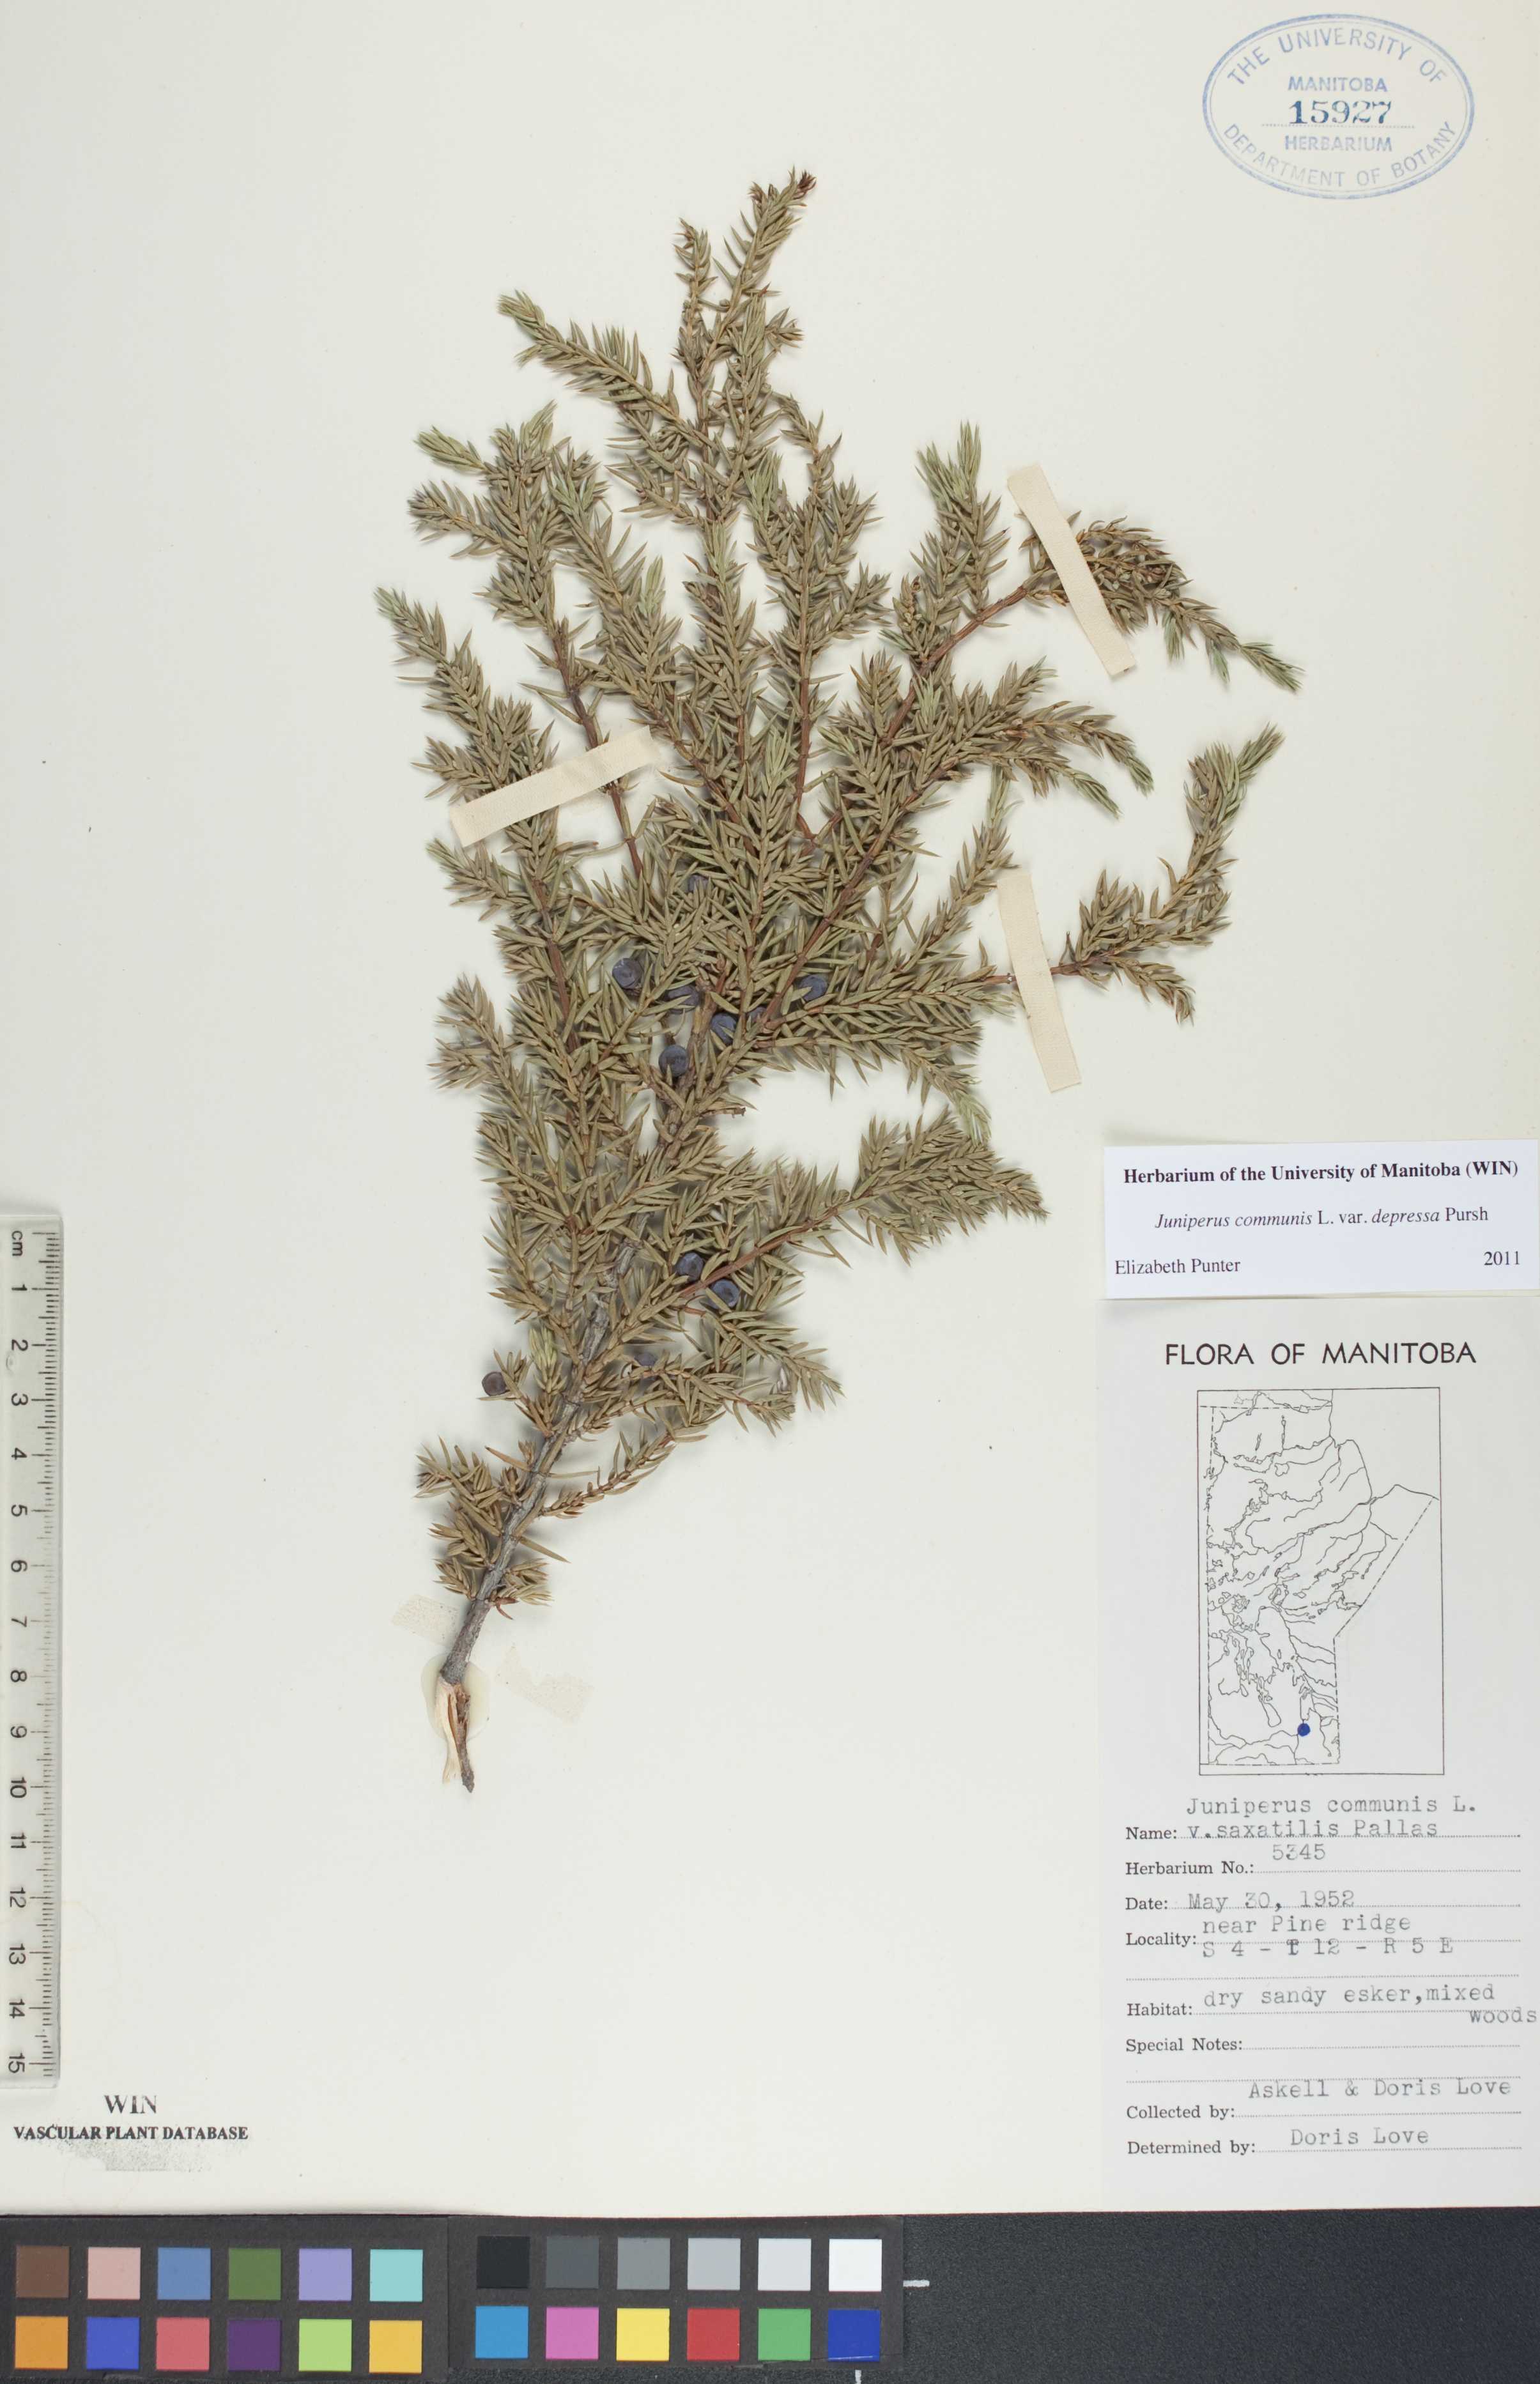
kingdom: Plantae
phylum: Tracheophyta
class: Pinopsida
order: Pinales
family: Cupressaceae
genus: Juniperus
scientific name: Juniperus communis
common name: Common juniper
